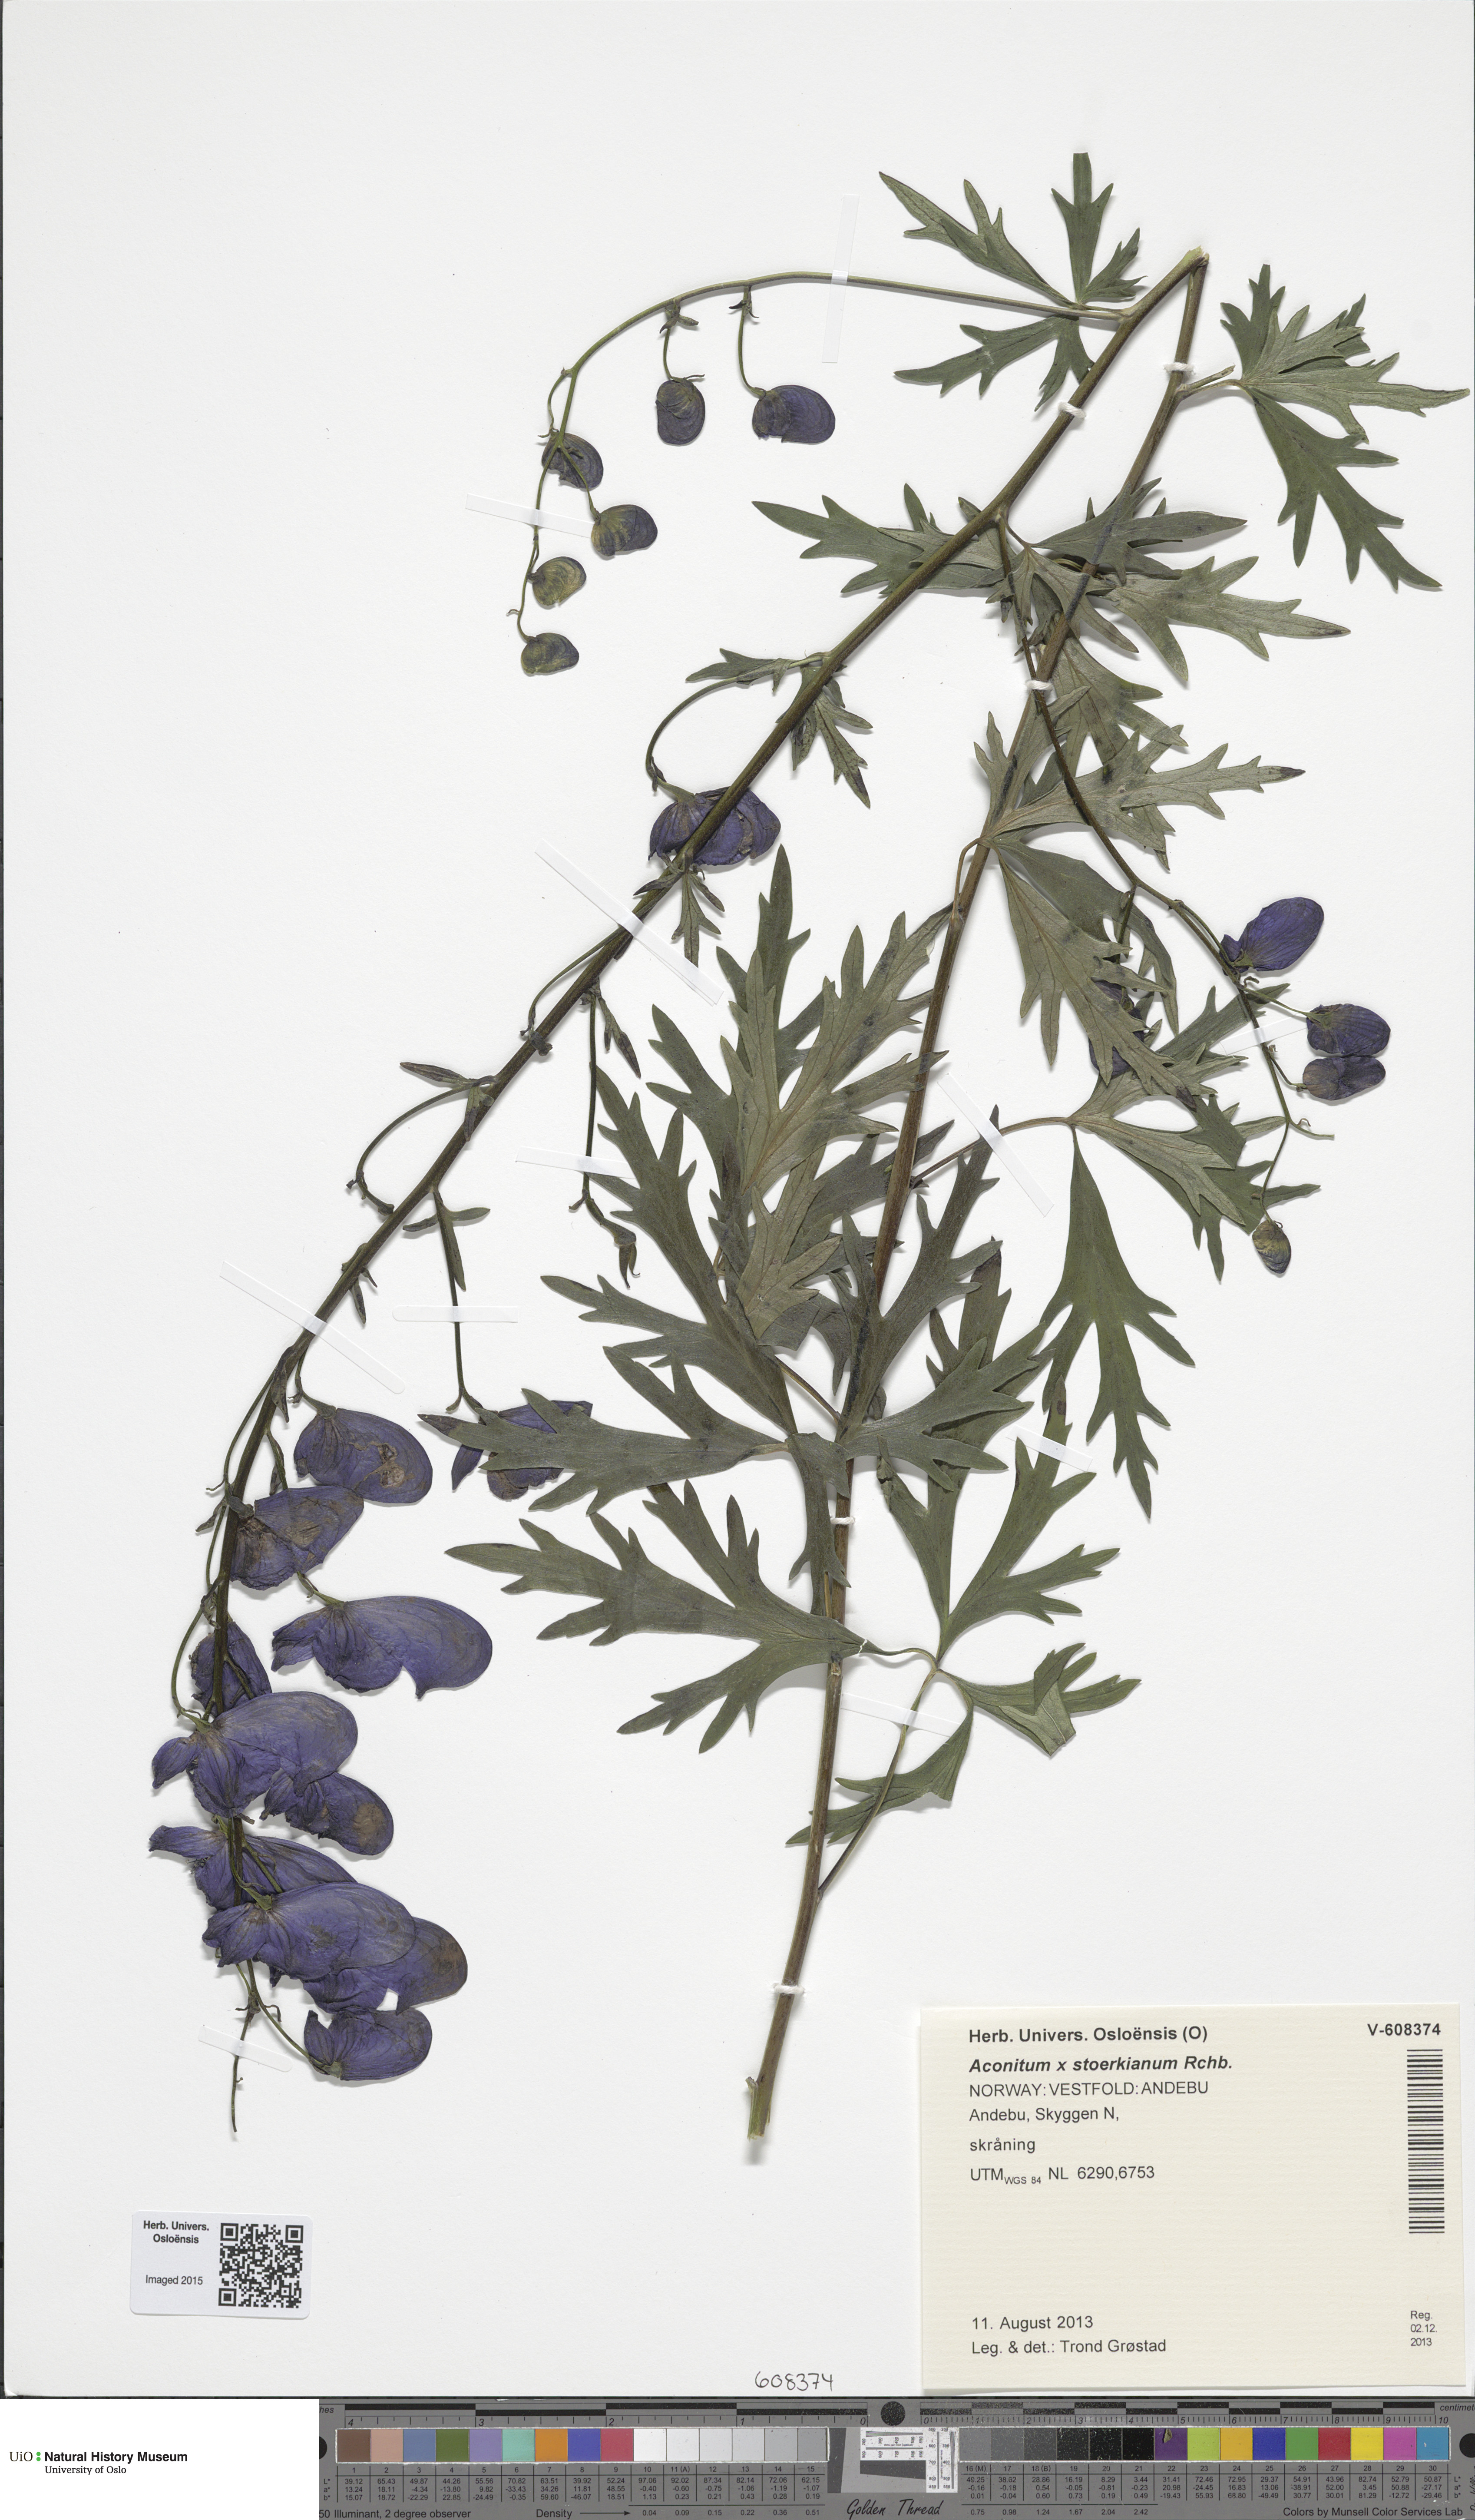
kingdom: Plantae
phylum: Tracheophyta
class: Magnoliopsida
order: Ranunculales
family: Ranunculaceae
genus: Aconitum
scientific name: Aconitum cammarum
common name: Hybrid monk's-hood
